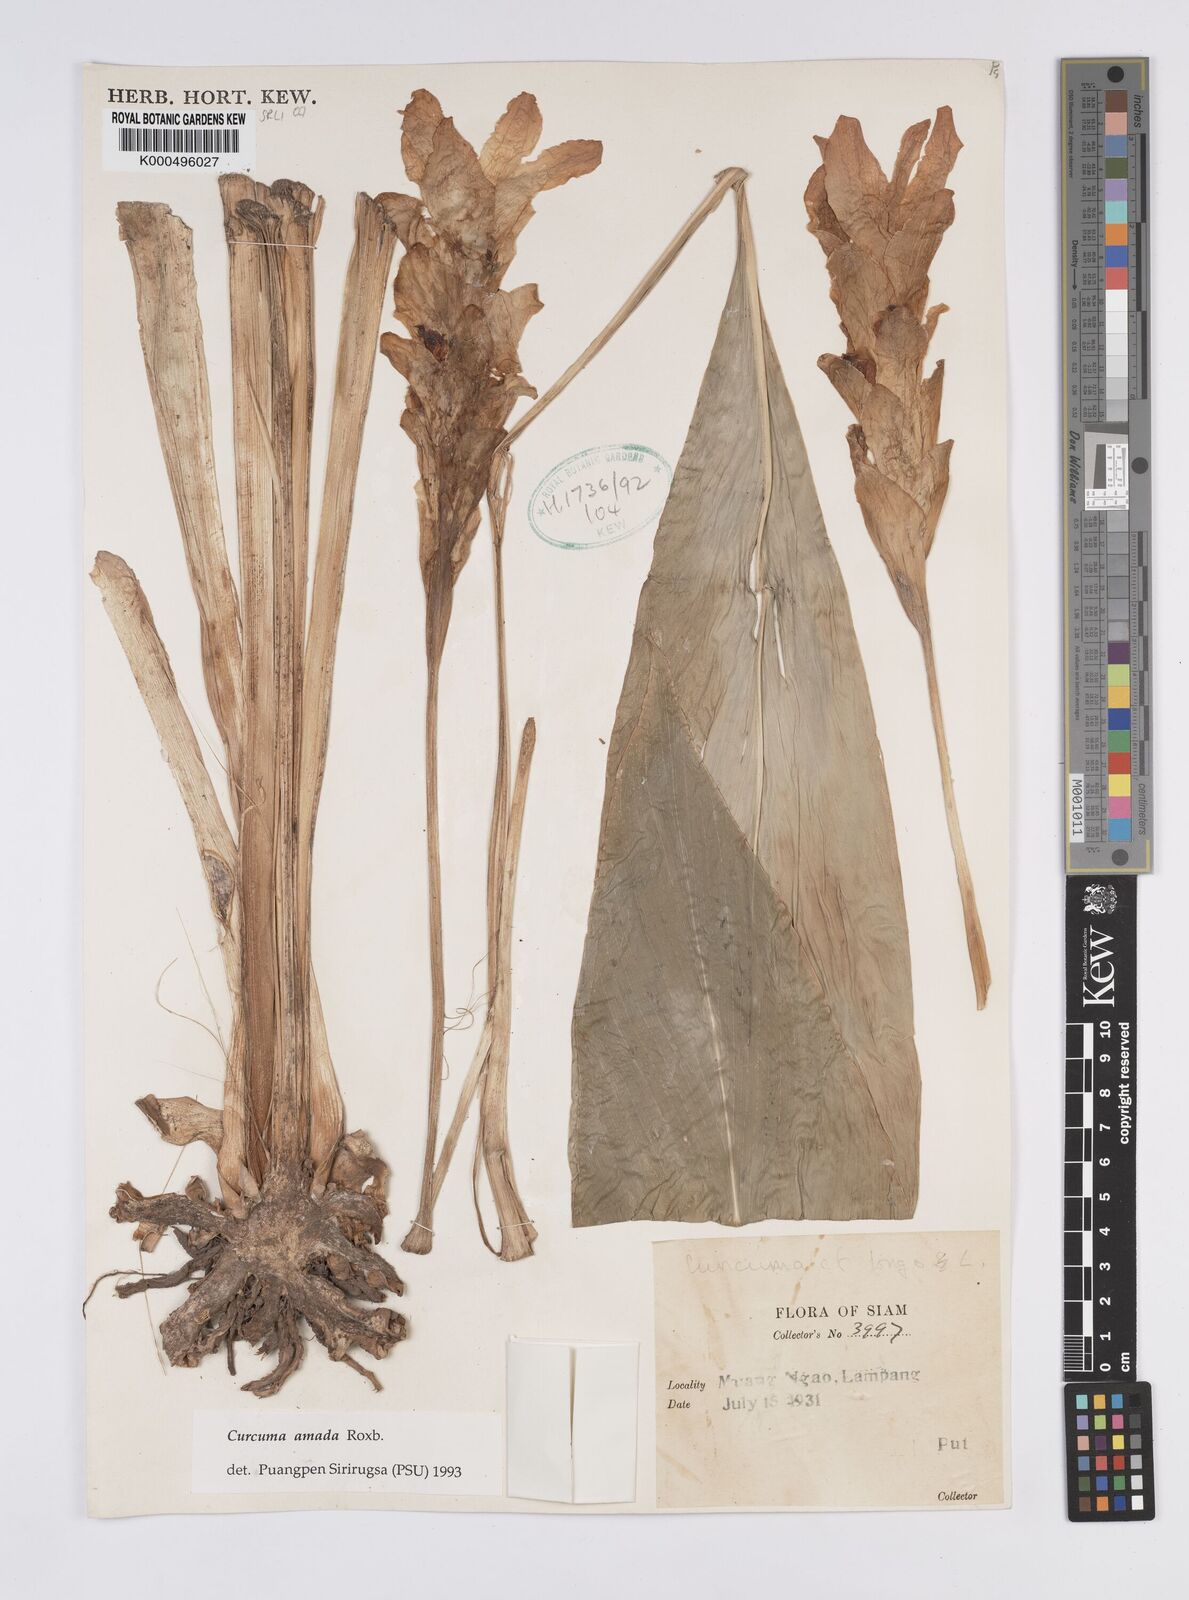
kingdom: Plantae
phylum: Tracheophyta
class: Liliopsida
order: Zingiberales
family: Zingiberaceae
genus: Curcuma
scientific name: Curcuma amada
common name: Mango-ginger
